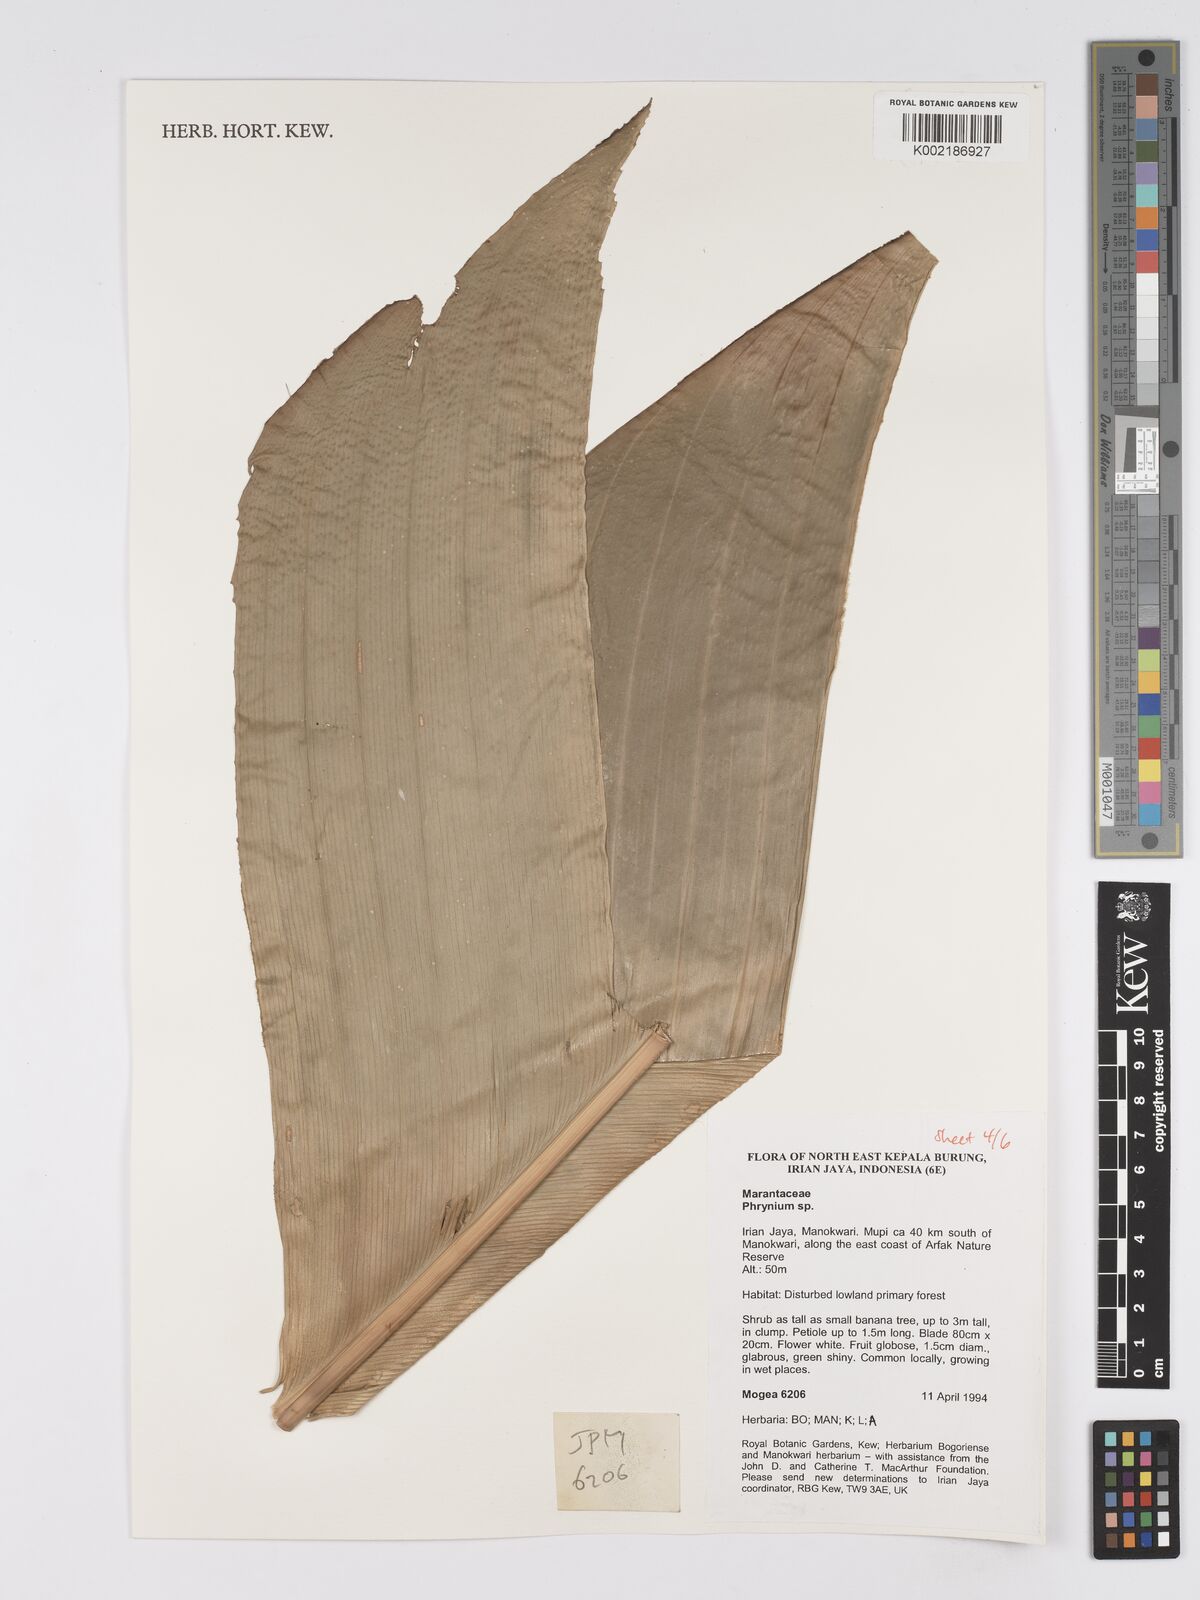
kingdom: Plantae
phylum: Tracheophyta
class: Liliopsida
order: Zingiberales
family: Marantaceae
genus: Phrynium
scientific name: Phrynium
